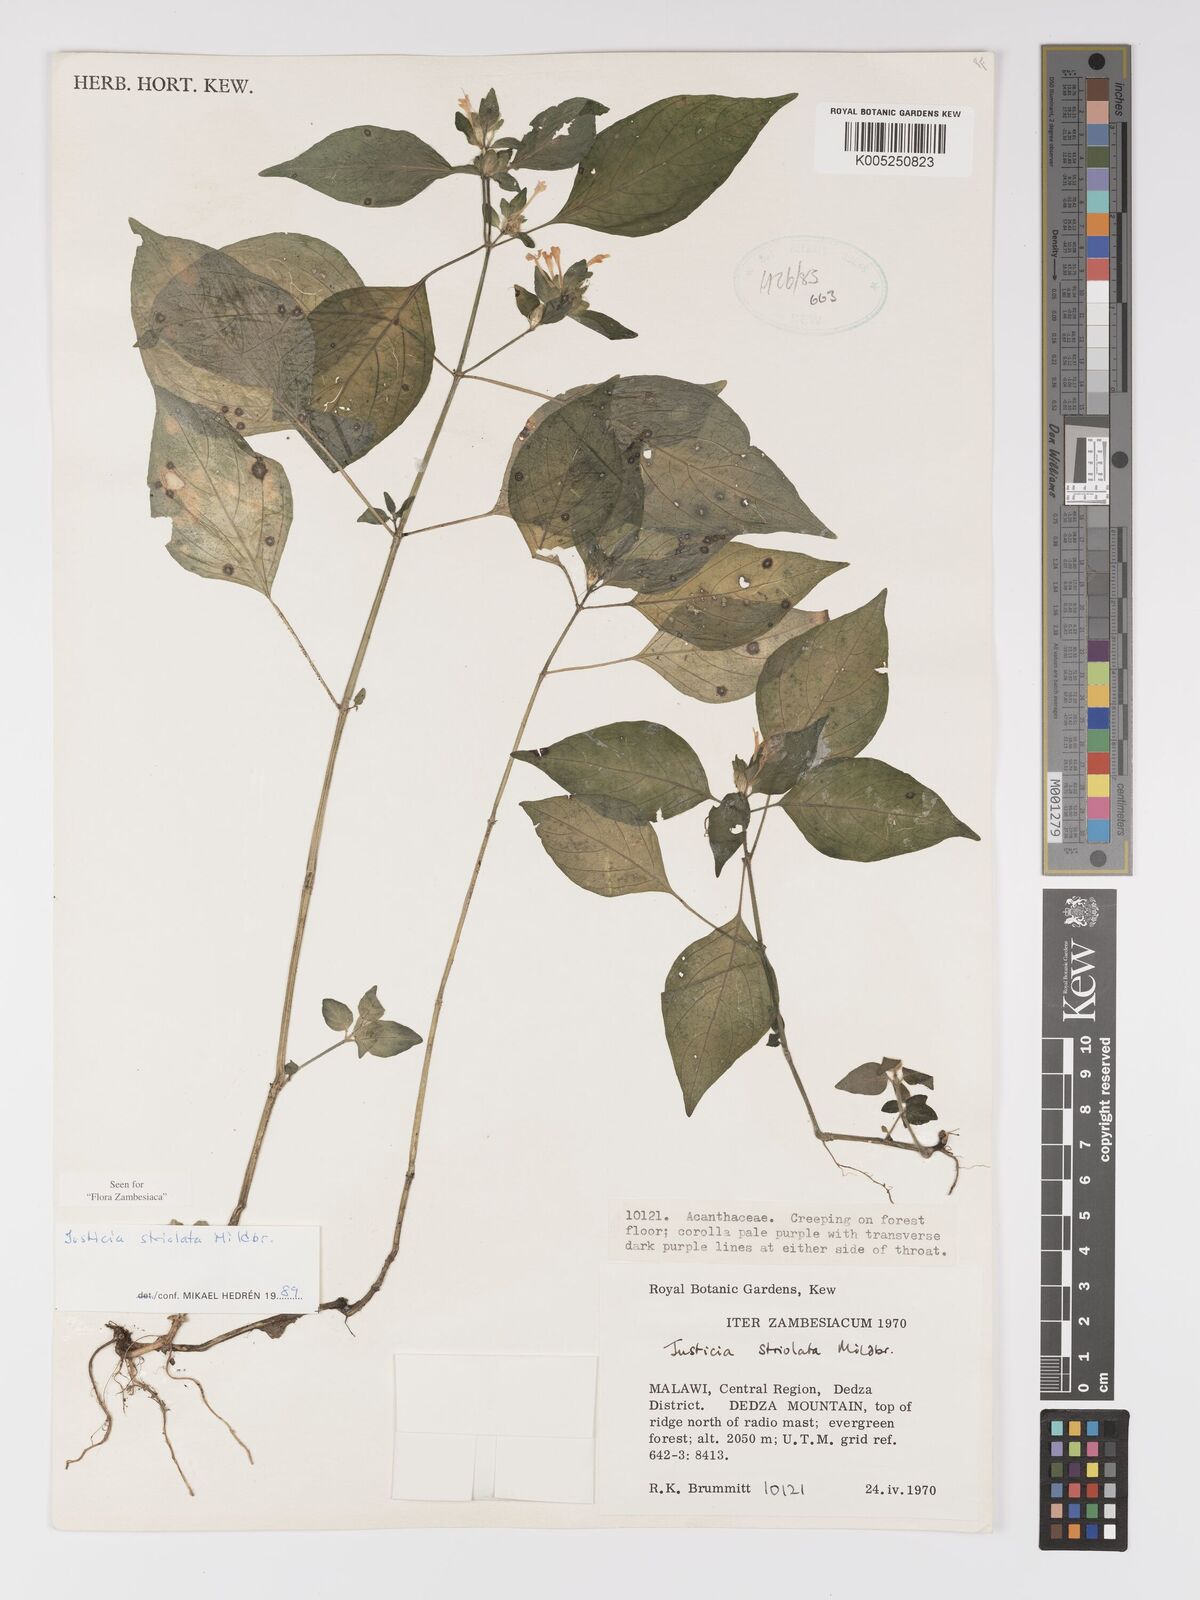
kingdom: Plantae
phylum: Tracheophyta
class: Magnoliopsida
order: Lamiales
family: Acanthaceae
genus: Justicia
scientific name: Justicia striolata
